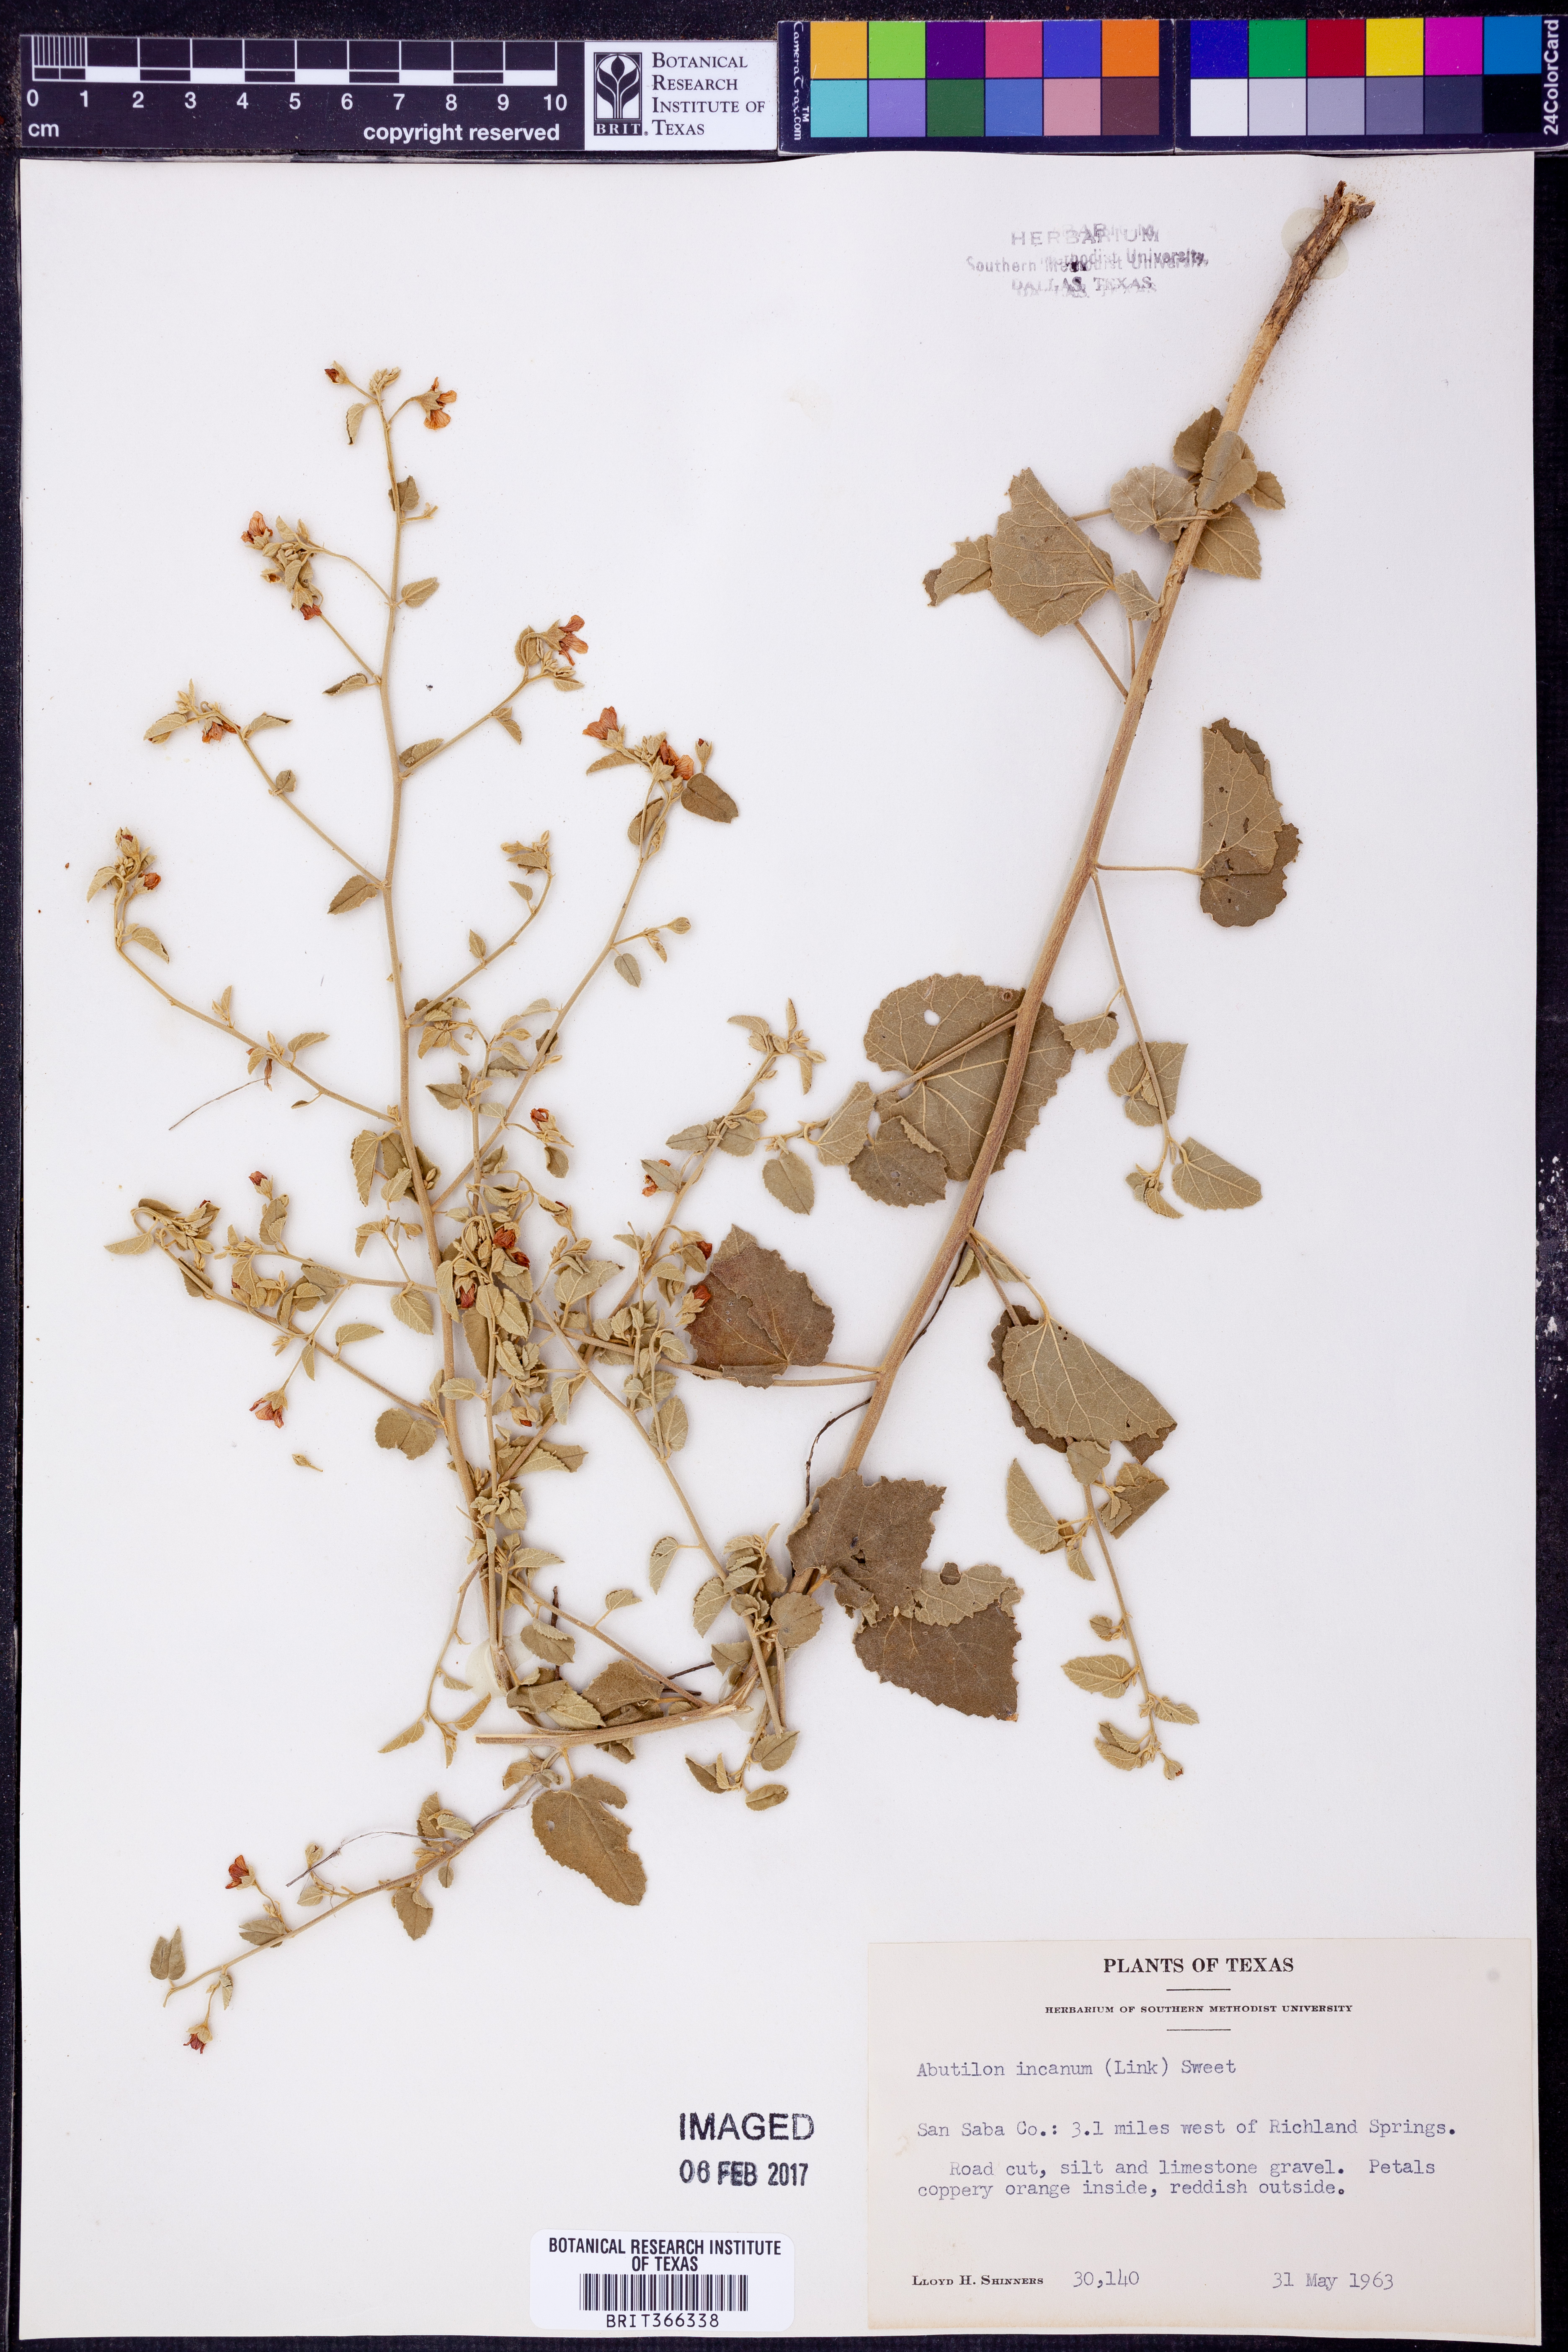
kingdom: Plantae
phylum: Tracheophyta
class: Magnoliopsida
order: Malvales
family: Malvaceae
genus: Abutilon
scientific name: Abutilon incanum
